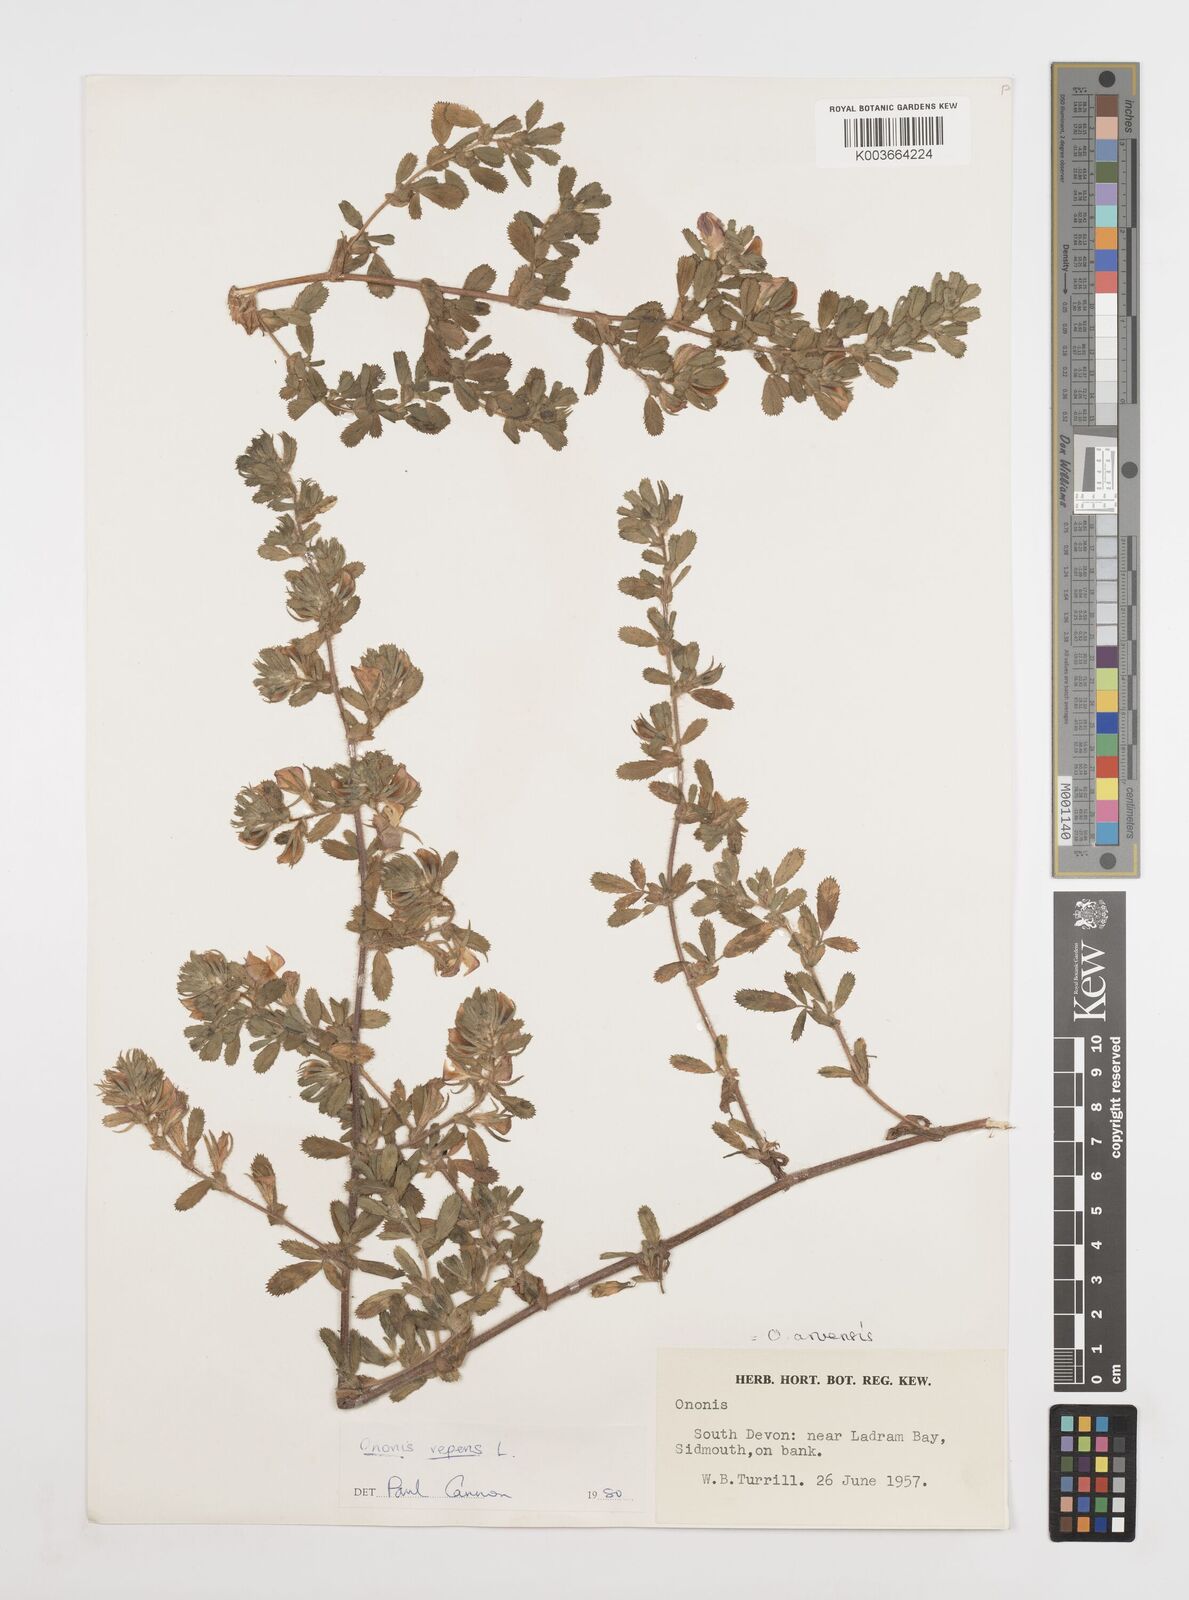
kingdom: Plantae
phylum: Tracheophyta
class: Magnoliopsida
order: Fabales
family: Fabaceae
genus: Ononis
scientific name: Ononis spinosa
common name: Spiny restharrow
